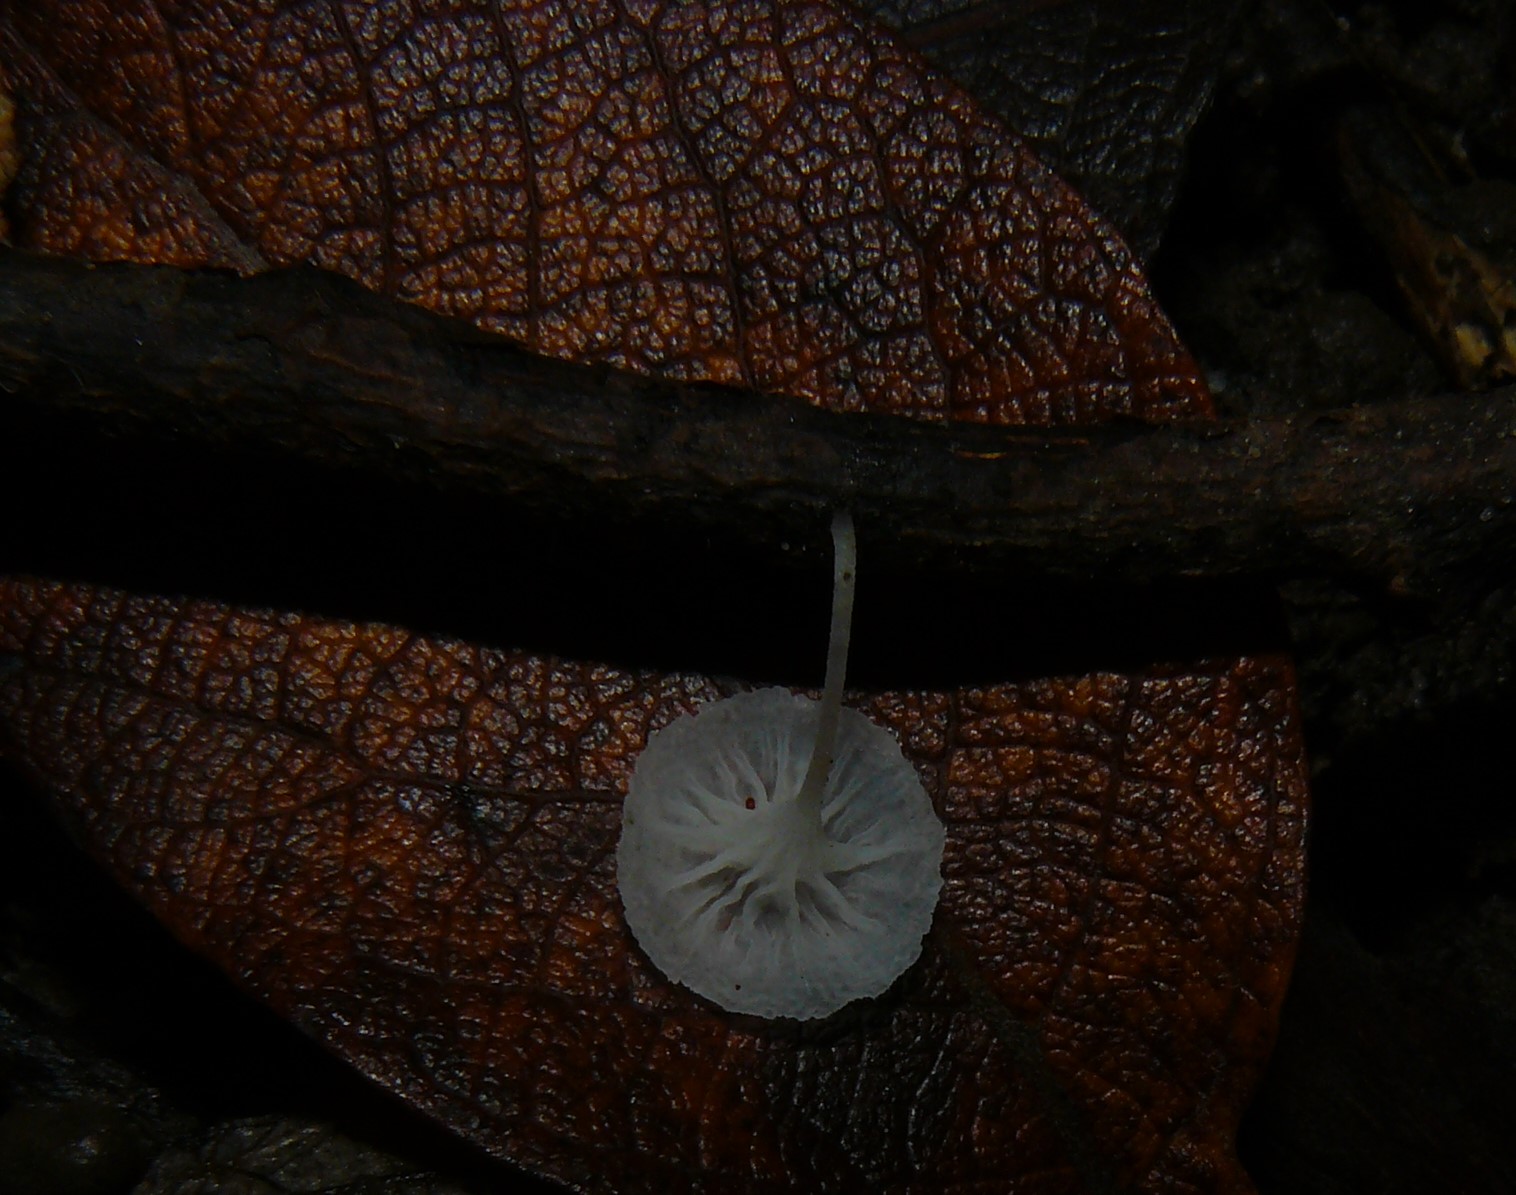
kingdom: Fungi
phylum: Basidiomycota
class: Agaricomycetes
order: Agaricales
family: Mycenaceae
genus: Hemimycena
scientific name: Hemimycena
